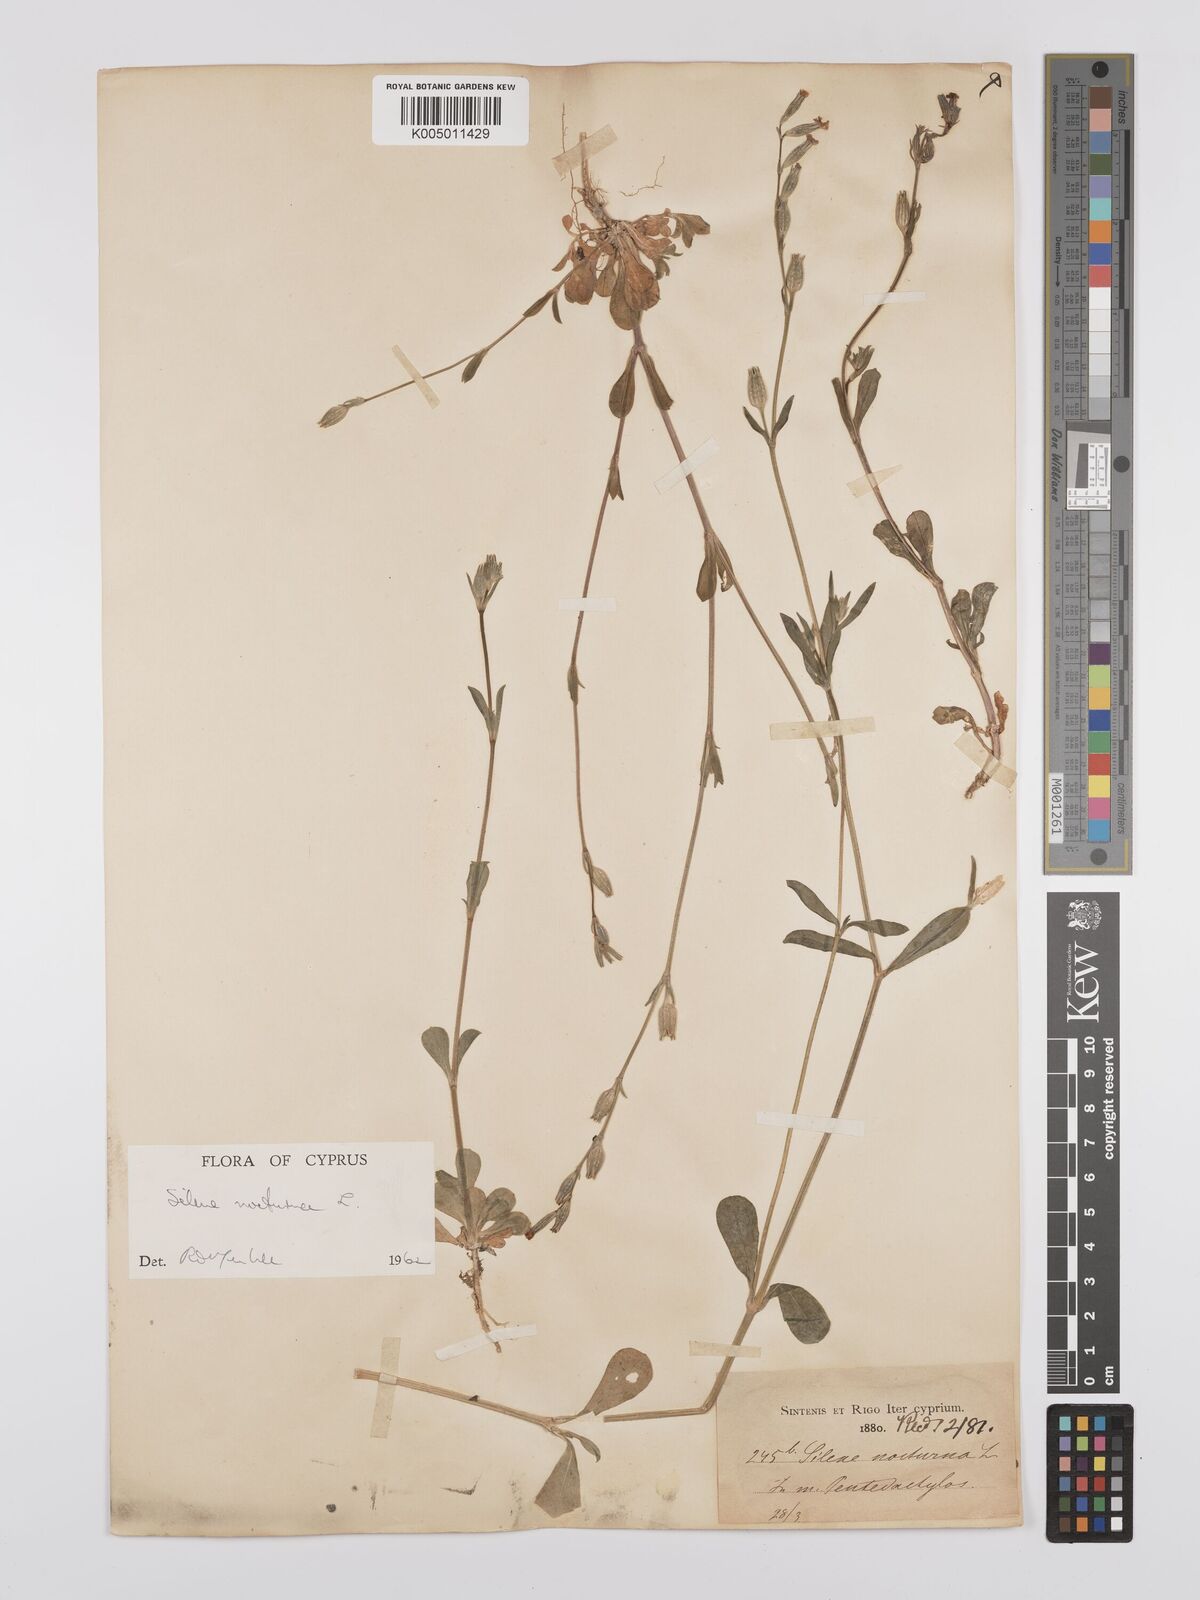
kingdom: Plantae
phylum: Tracheophyta
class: Magnoliopsida
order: Caryophyllales
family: Caryophyllaceae
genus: Silene
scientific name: Silene nocturna
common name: Mediterranean catchfly
